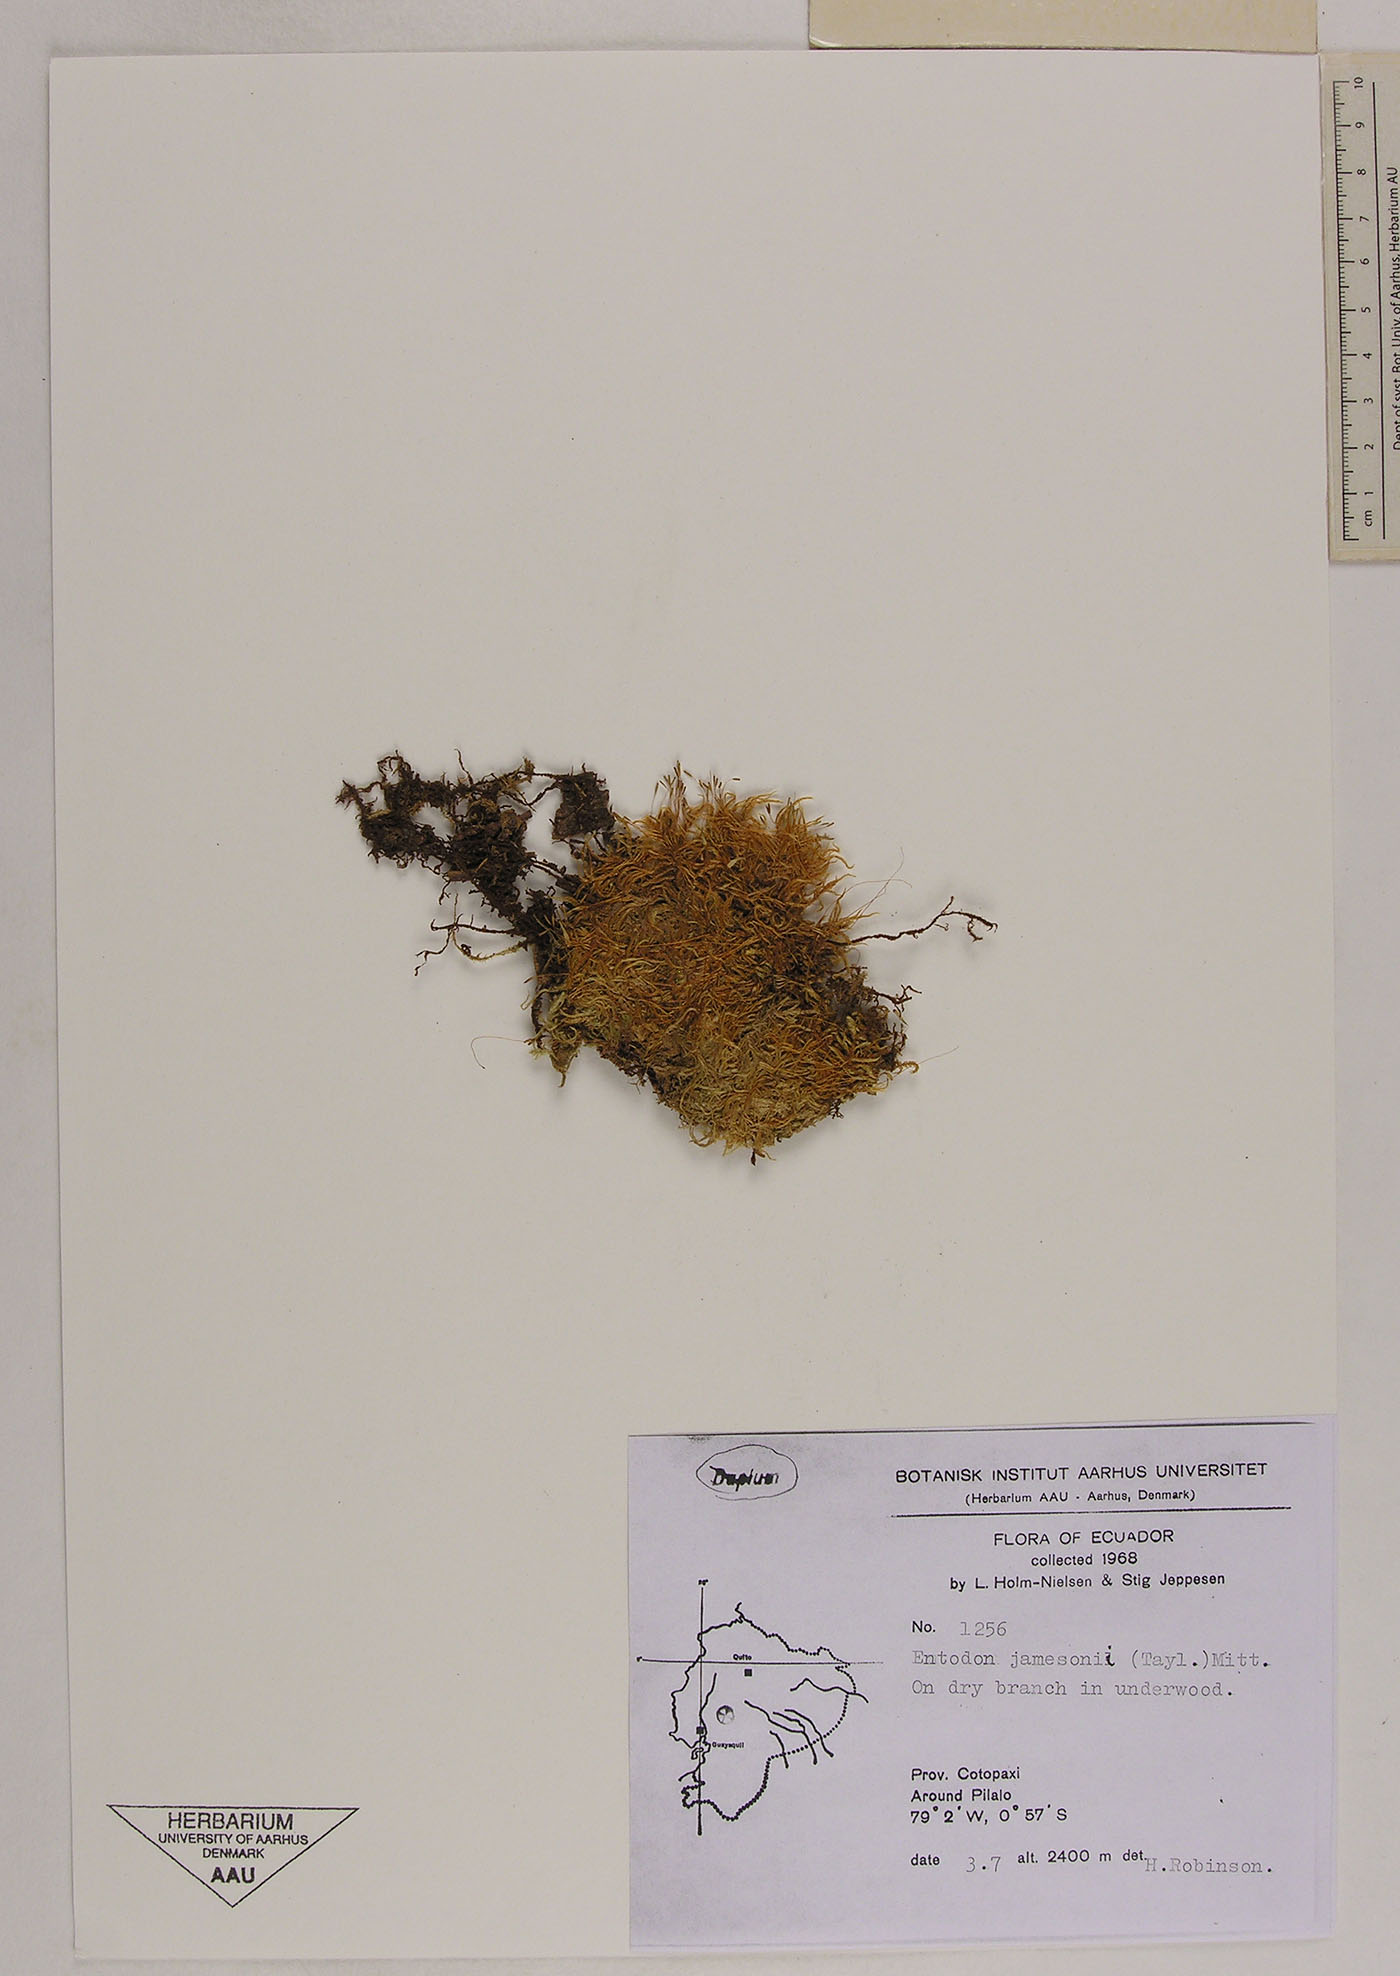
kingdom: Plantae
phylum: Bryophyta
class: Bryopsida
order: Hypnales
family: Entodontaceae
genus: Entodon
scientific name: Entodon jamesonii
